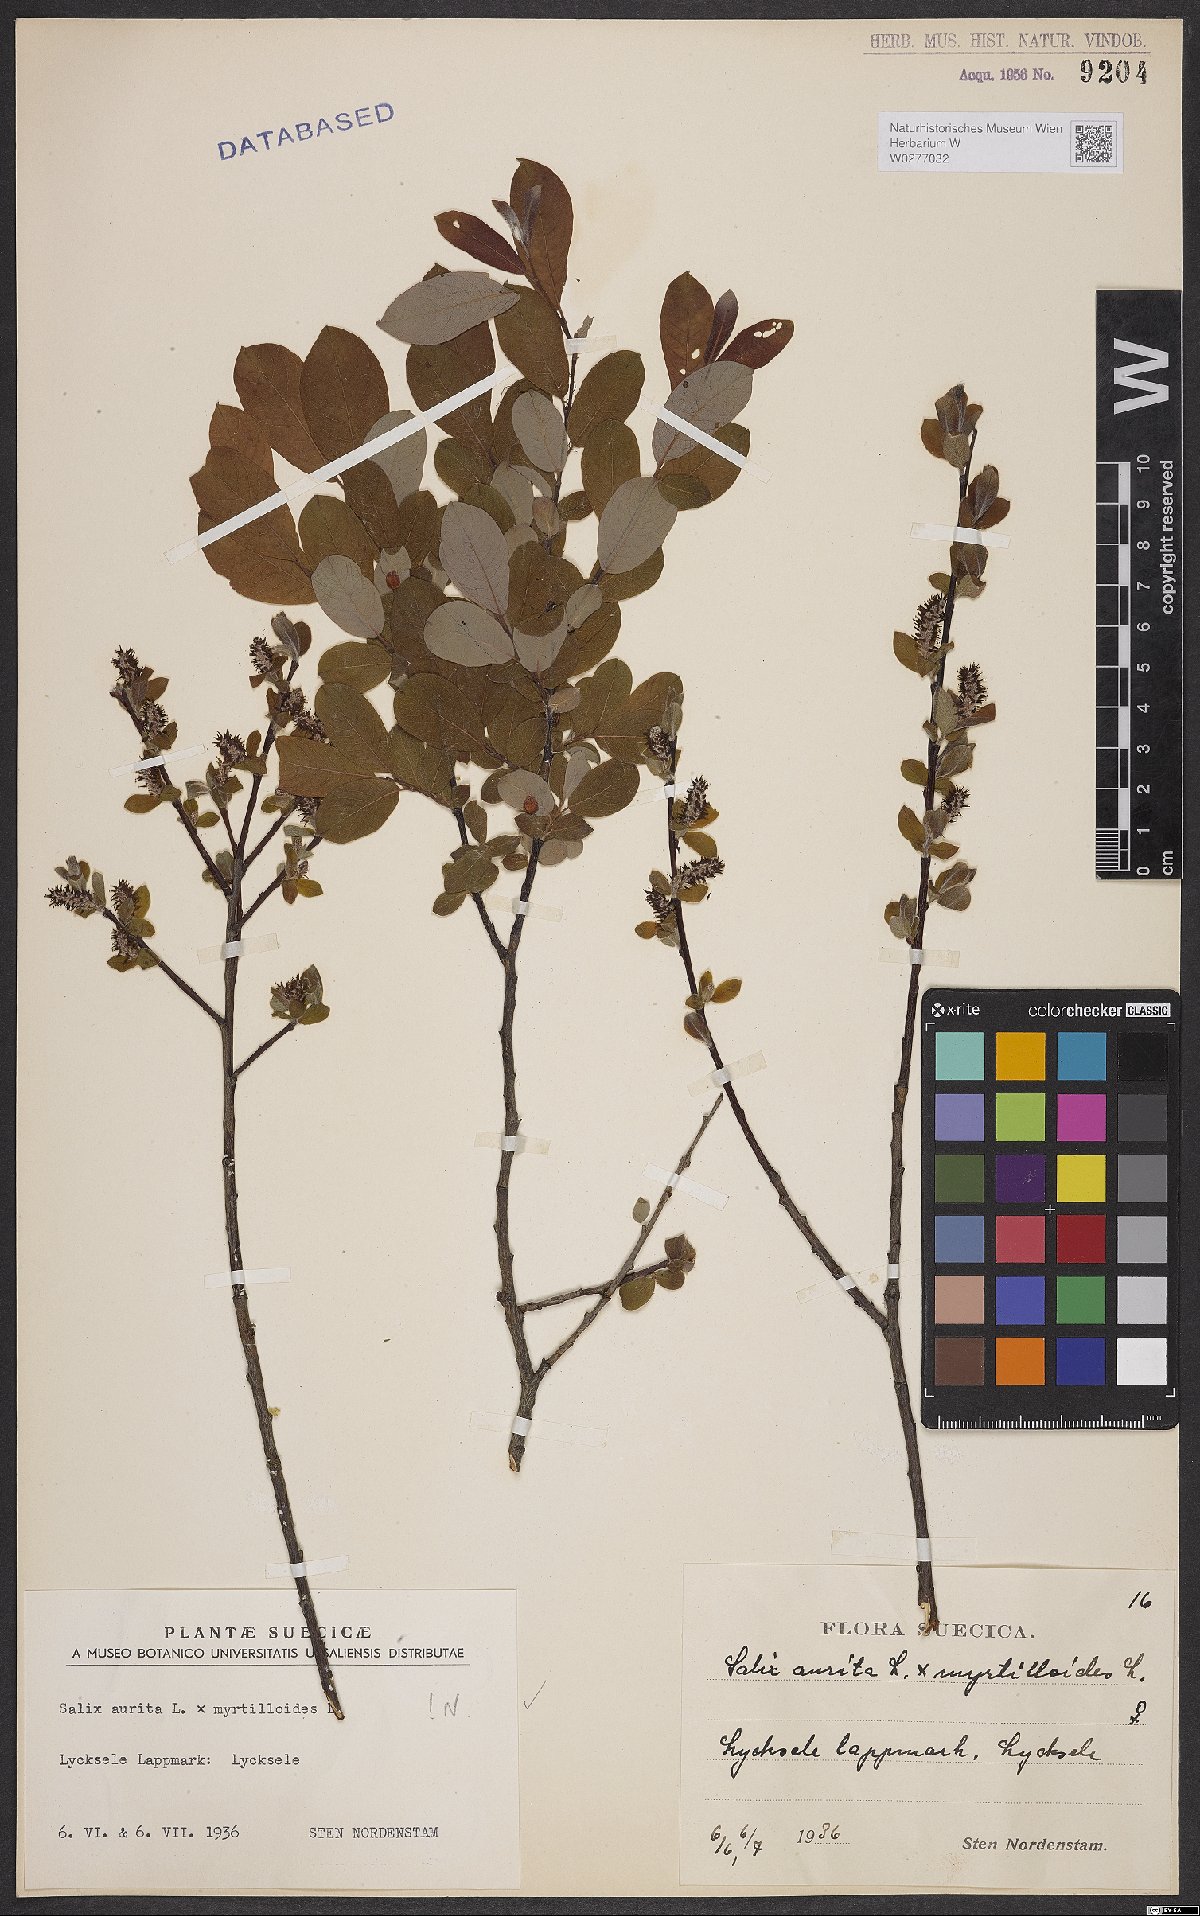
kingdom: Plantae
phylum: Tracheophyta
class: Magnoliopsida
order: Malpighiales
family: Salicaceae
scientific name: Salicaceae
